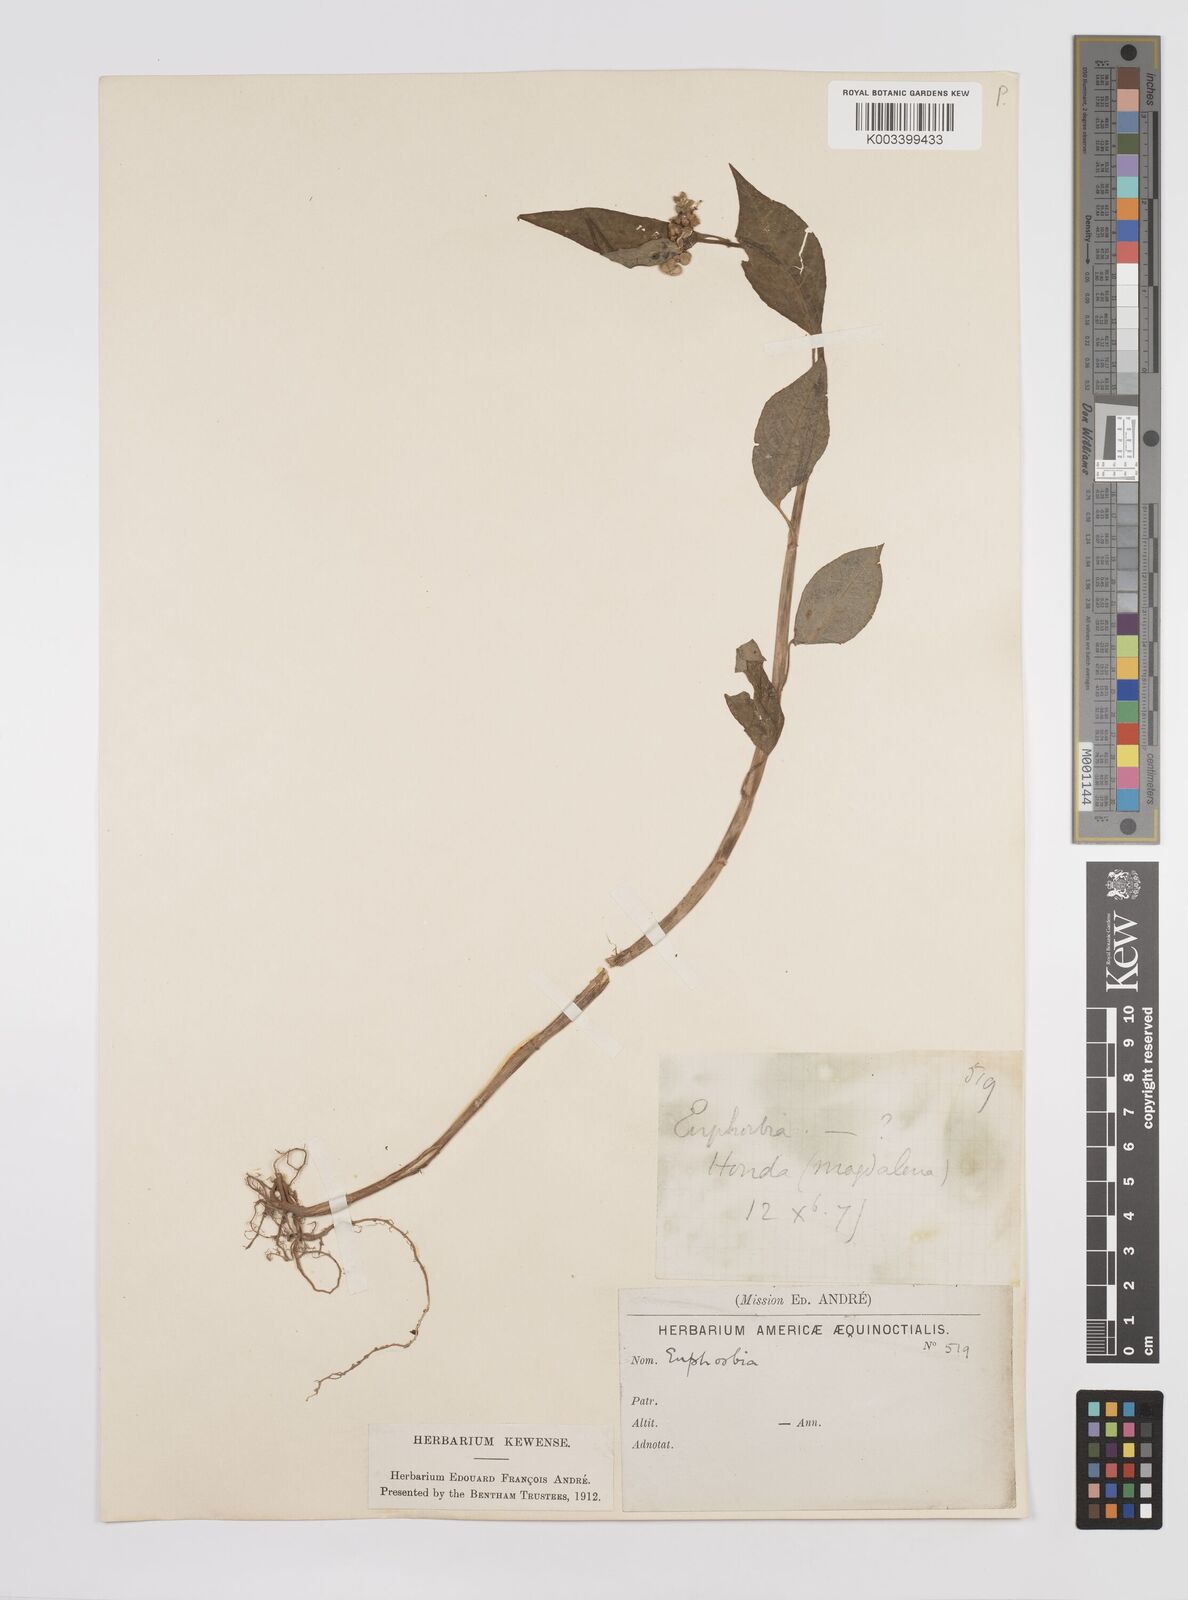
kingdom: Plantae
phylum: Tracheophyta
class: Magnoliopsida
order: Malpighiales
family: Euphorbiaceae
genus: Euphorbia
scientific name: Euphorbia
